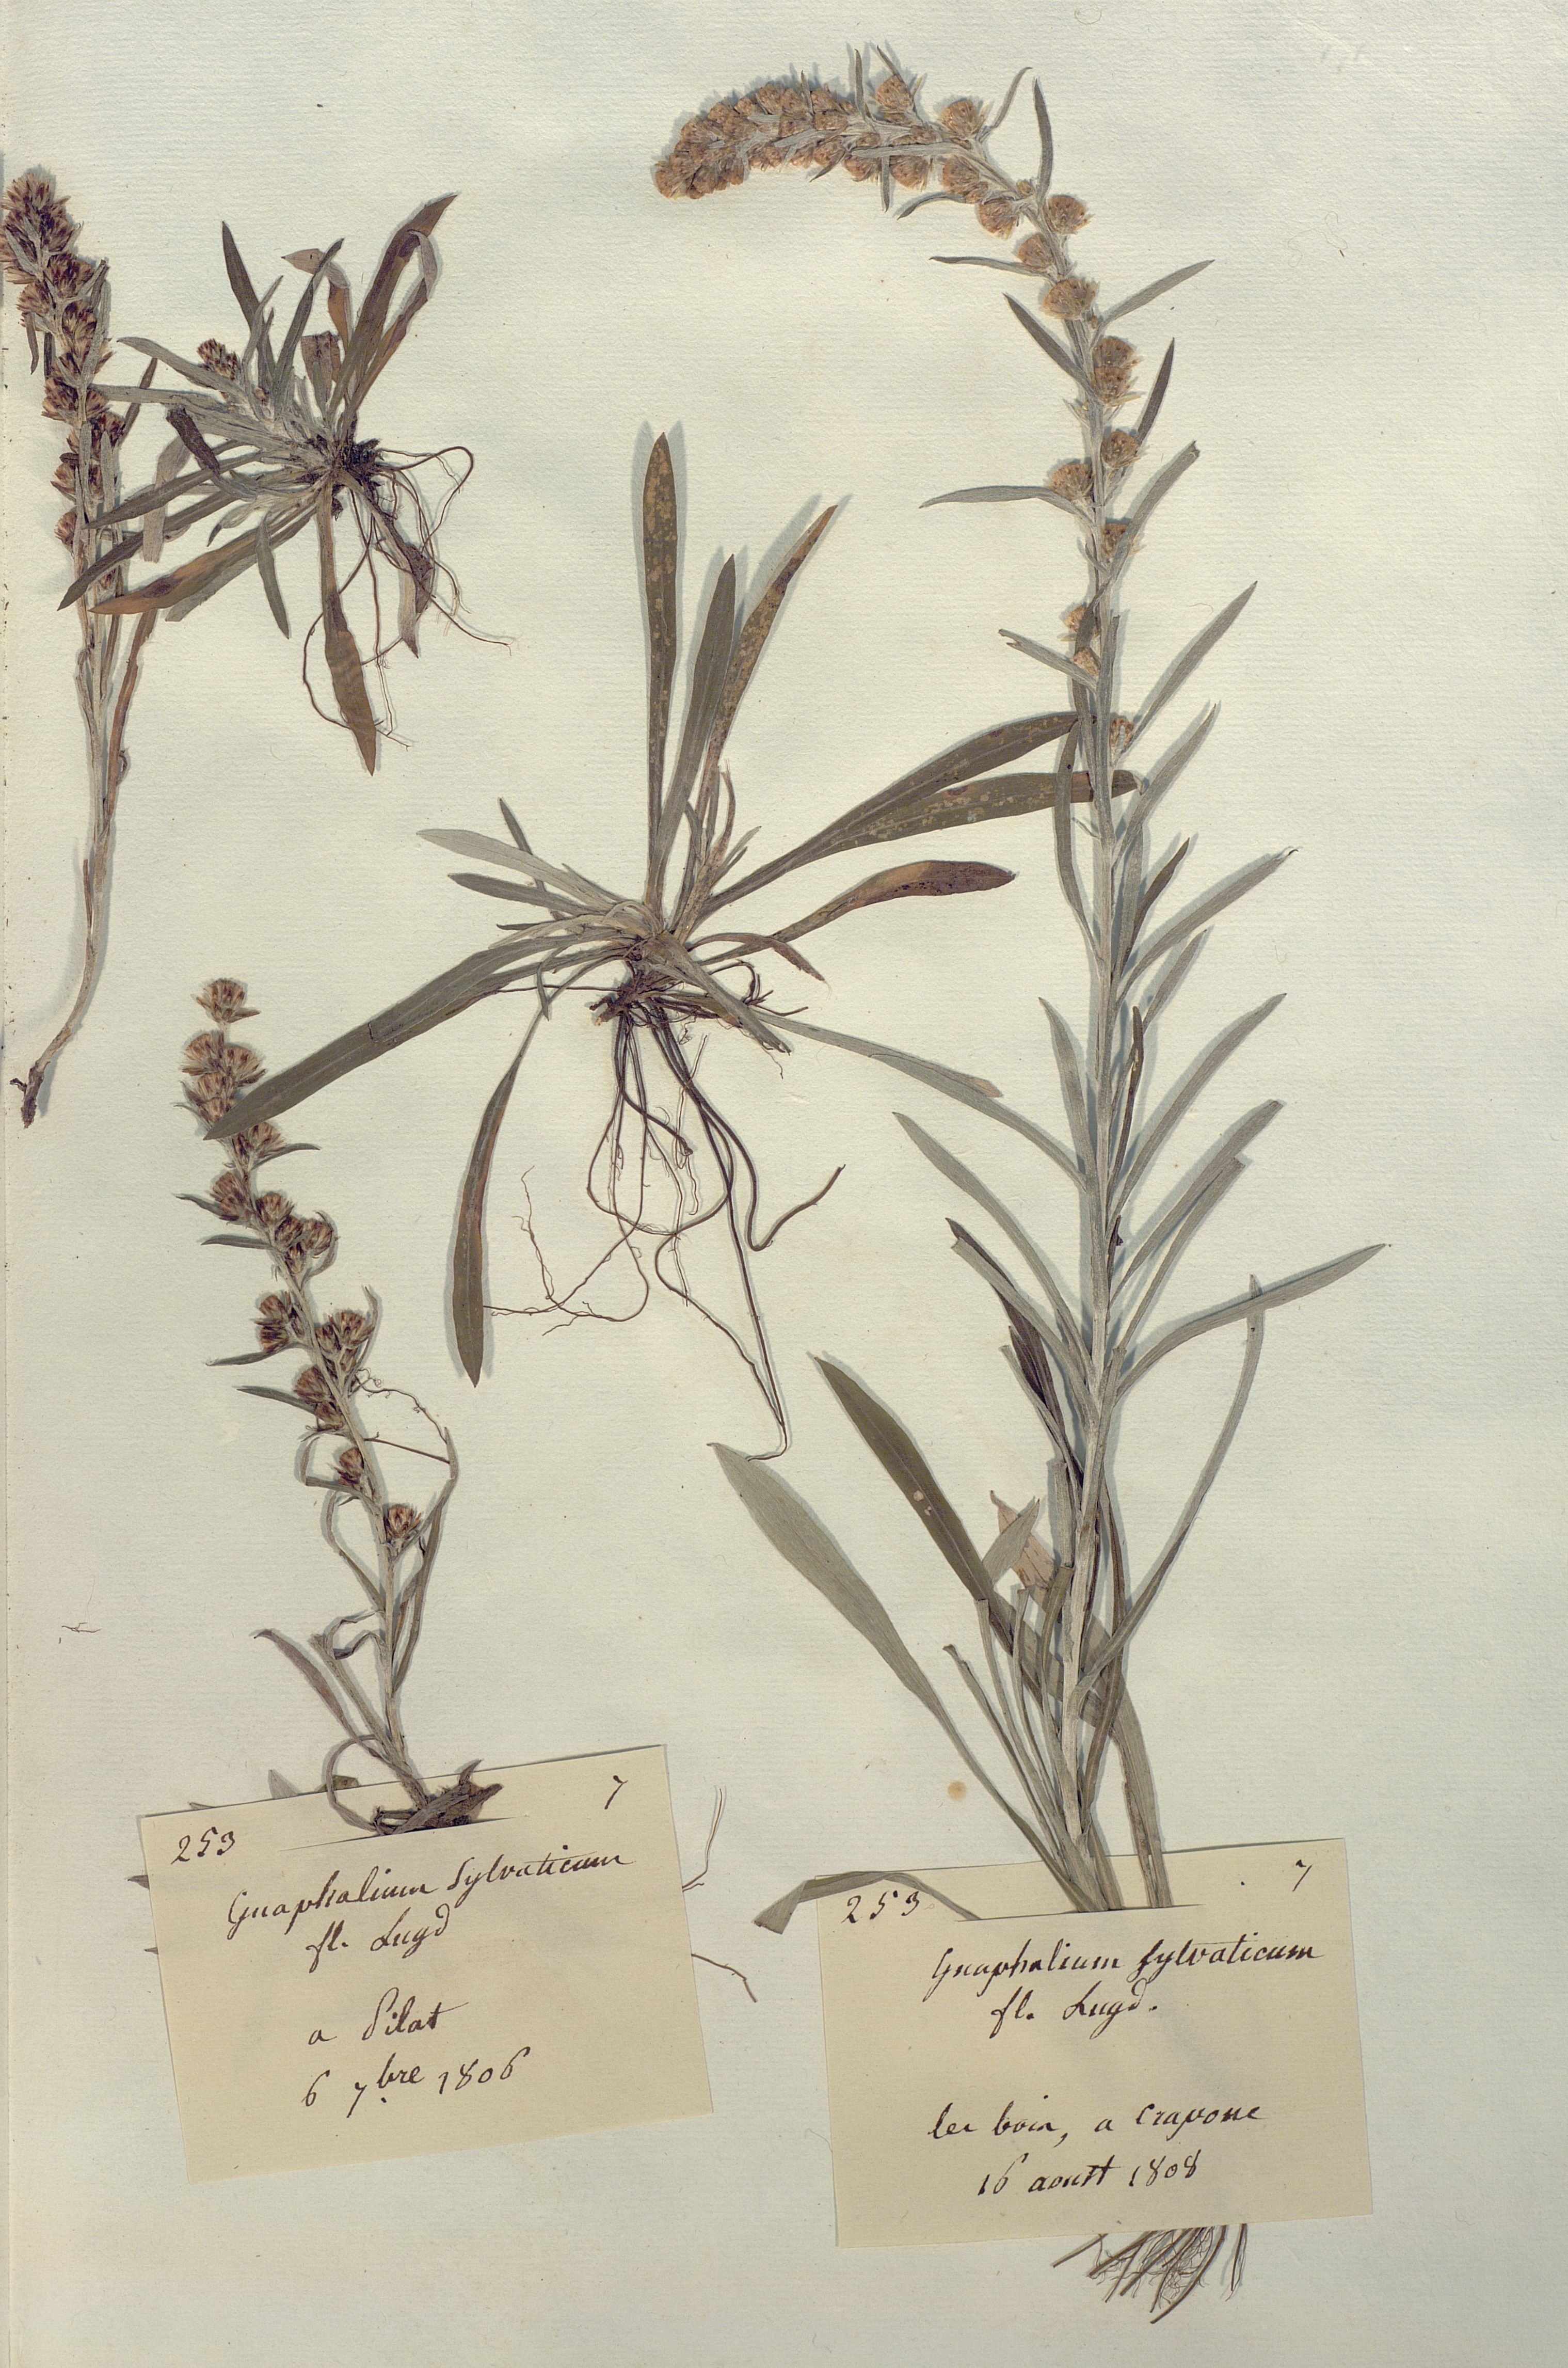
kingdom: Plantae
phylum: Tracheophyta
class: Magnoliopsida
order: Asterales
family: Asteraceae
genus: Gnaphalium
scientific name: Gnaphalium sylvaticum
